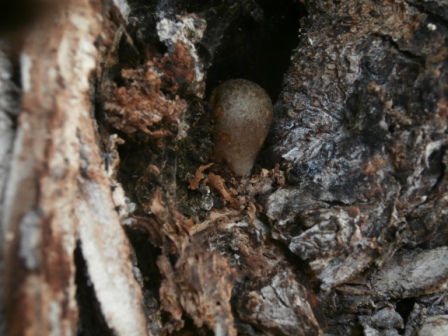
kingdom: Fungi
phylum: Basidiomycota
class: Agaricomycetes
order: Agaricales
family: Pluteaceae
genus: Volvariella
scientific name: Volvariella bombycina
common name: silkehåret posesvamp
